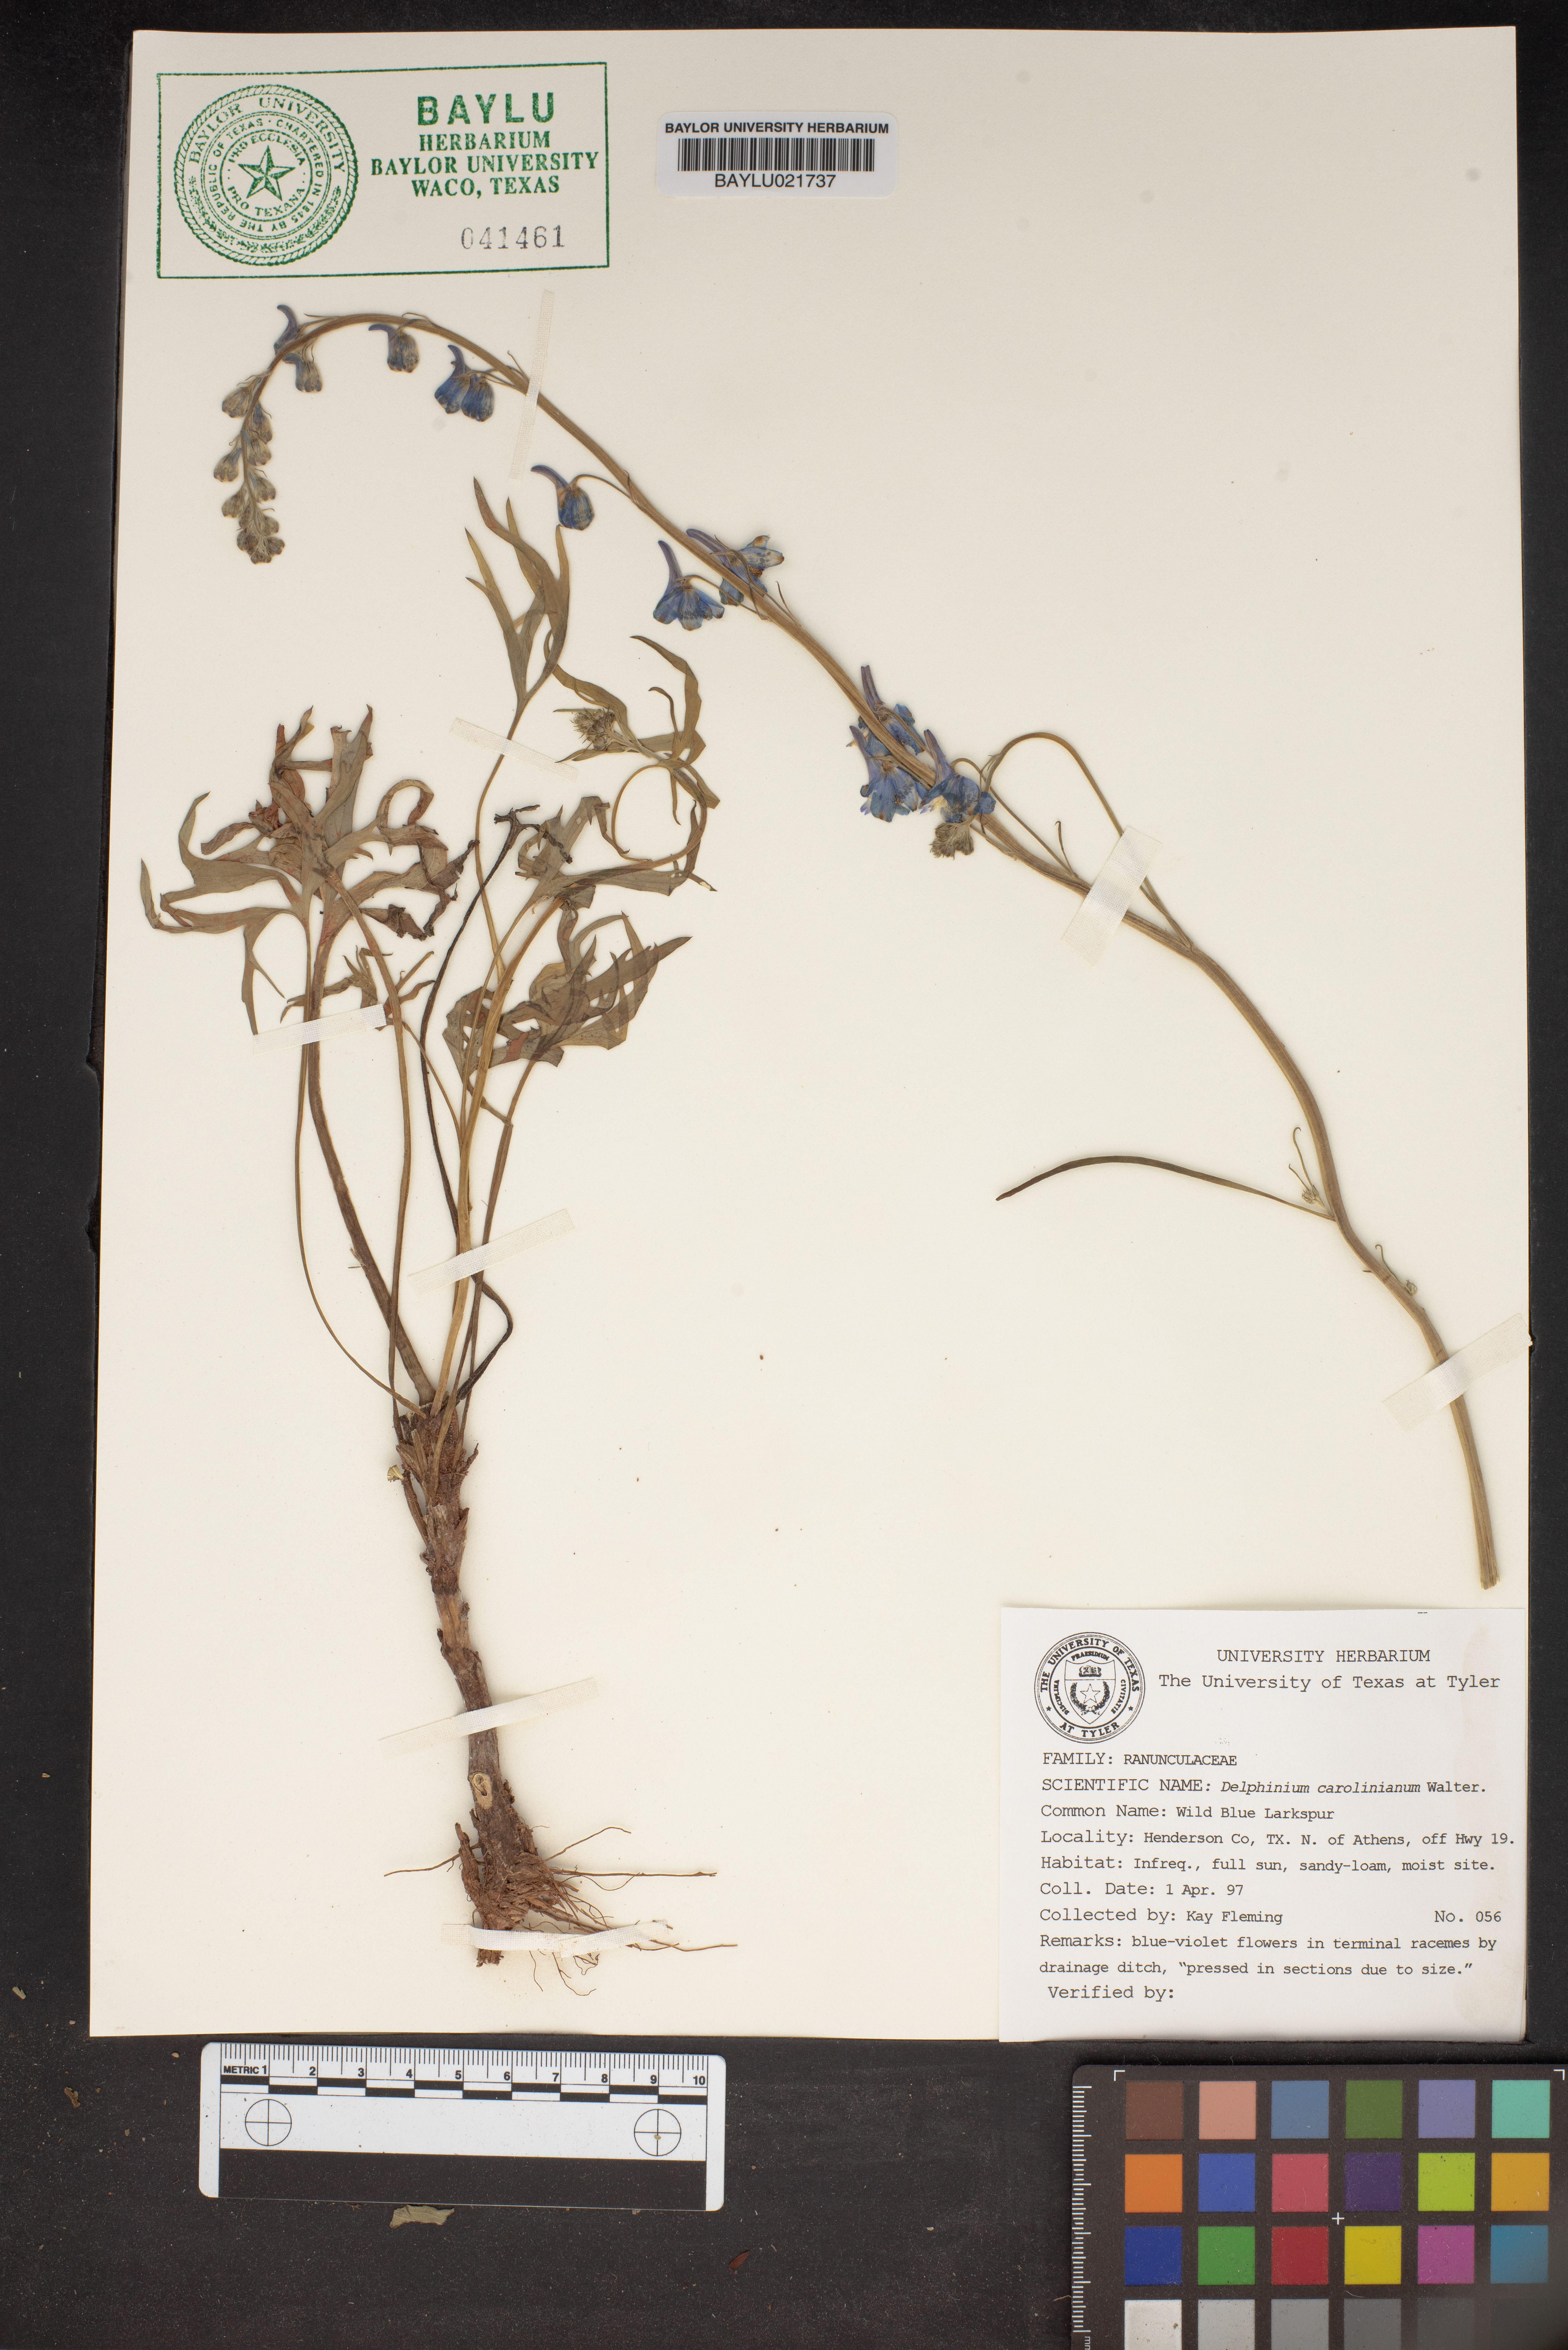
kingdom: Plantae
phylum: Tracheophyta
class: Magnoliopsida
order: Ranunculales
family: Ranunculaceae
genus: Delphinium
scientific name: Delphinium carolinianum
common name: Carolina larkspur
